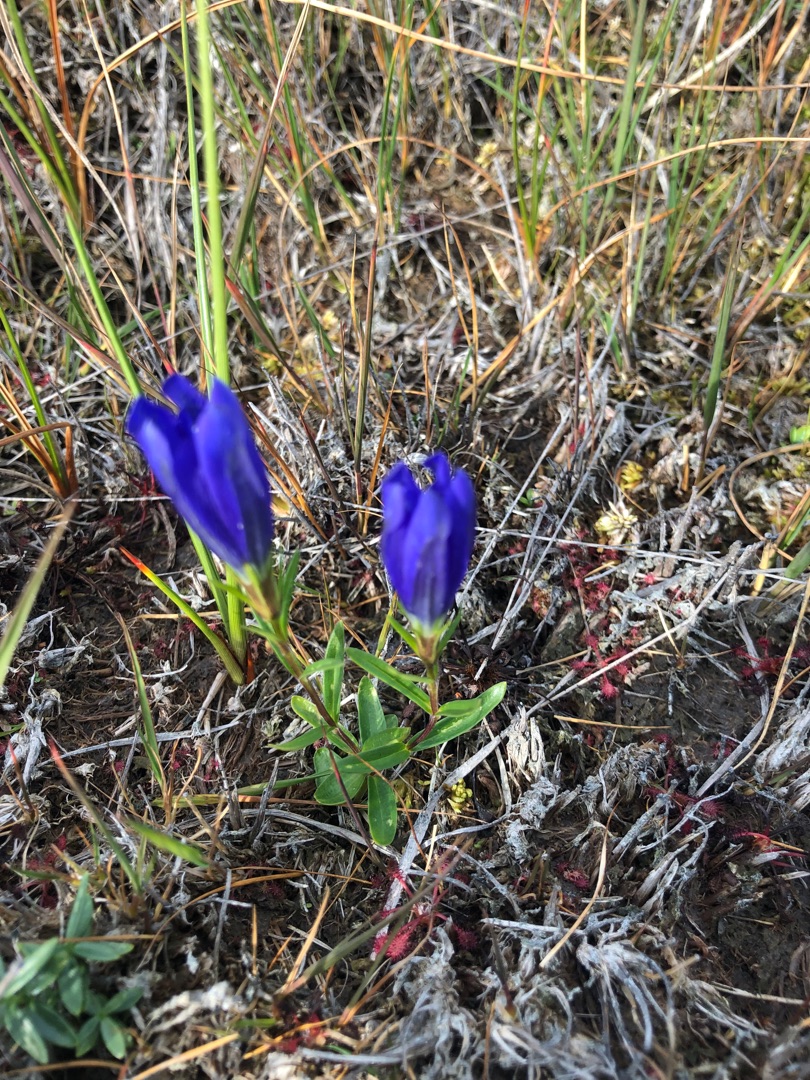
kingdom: Plantae
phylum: Tracheophyta
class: Magnoliopsida
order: Gentianales
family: Gentianaceae
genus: Gentiana
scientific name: Gentiana pneumonanthe
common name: Klokke-ensian
